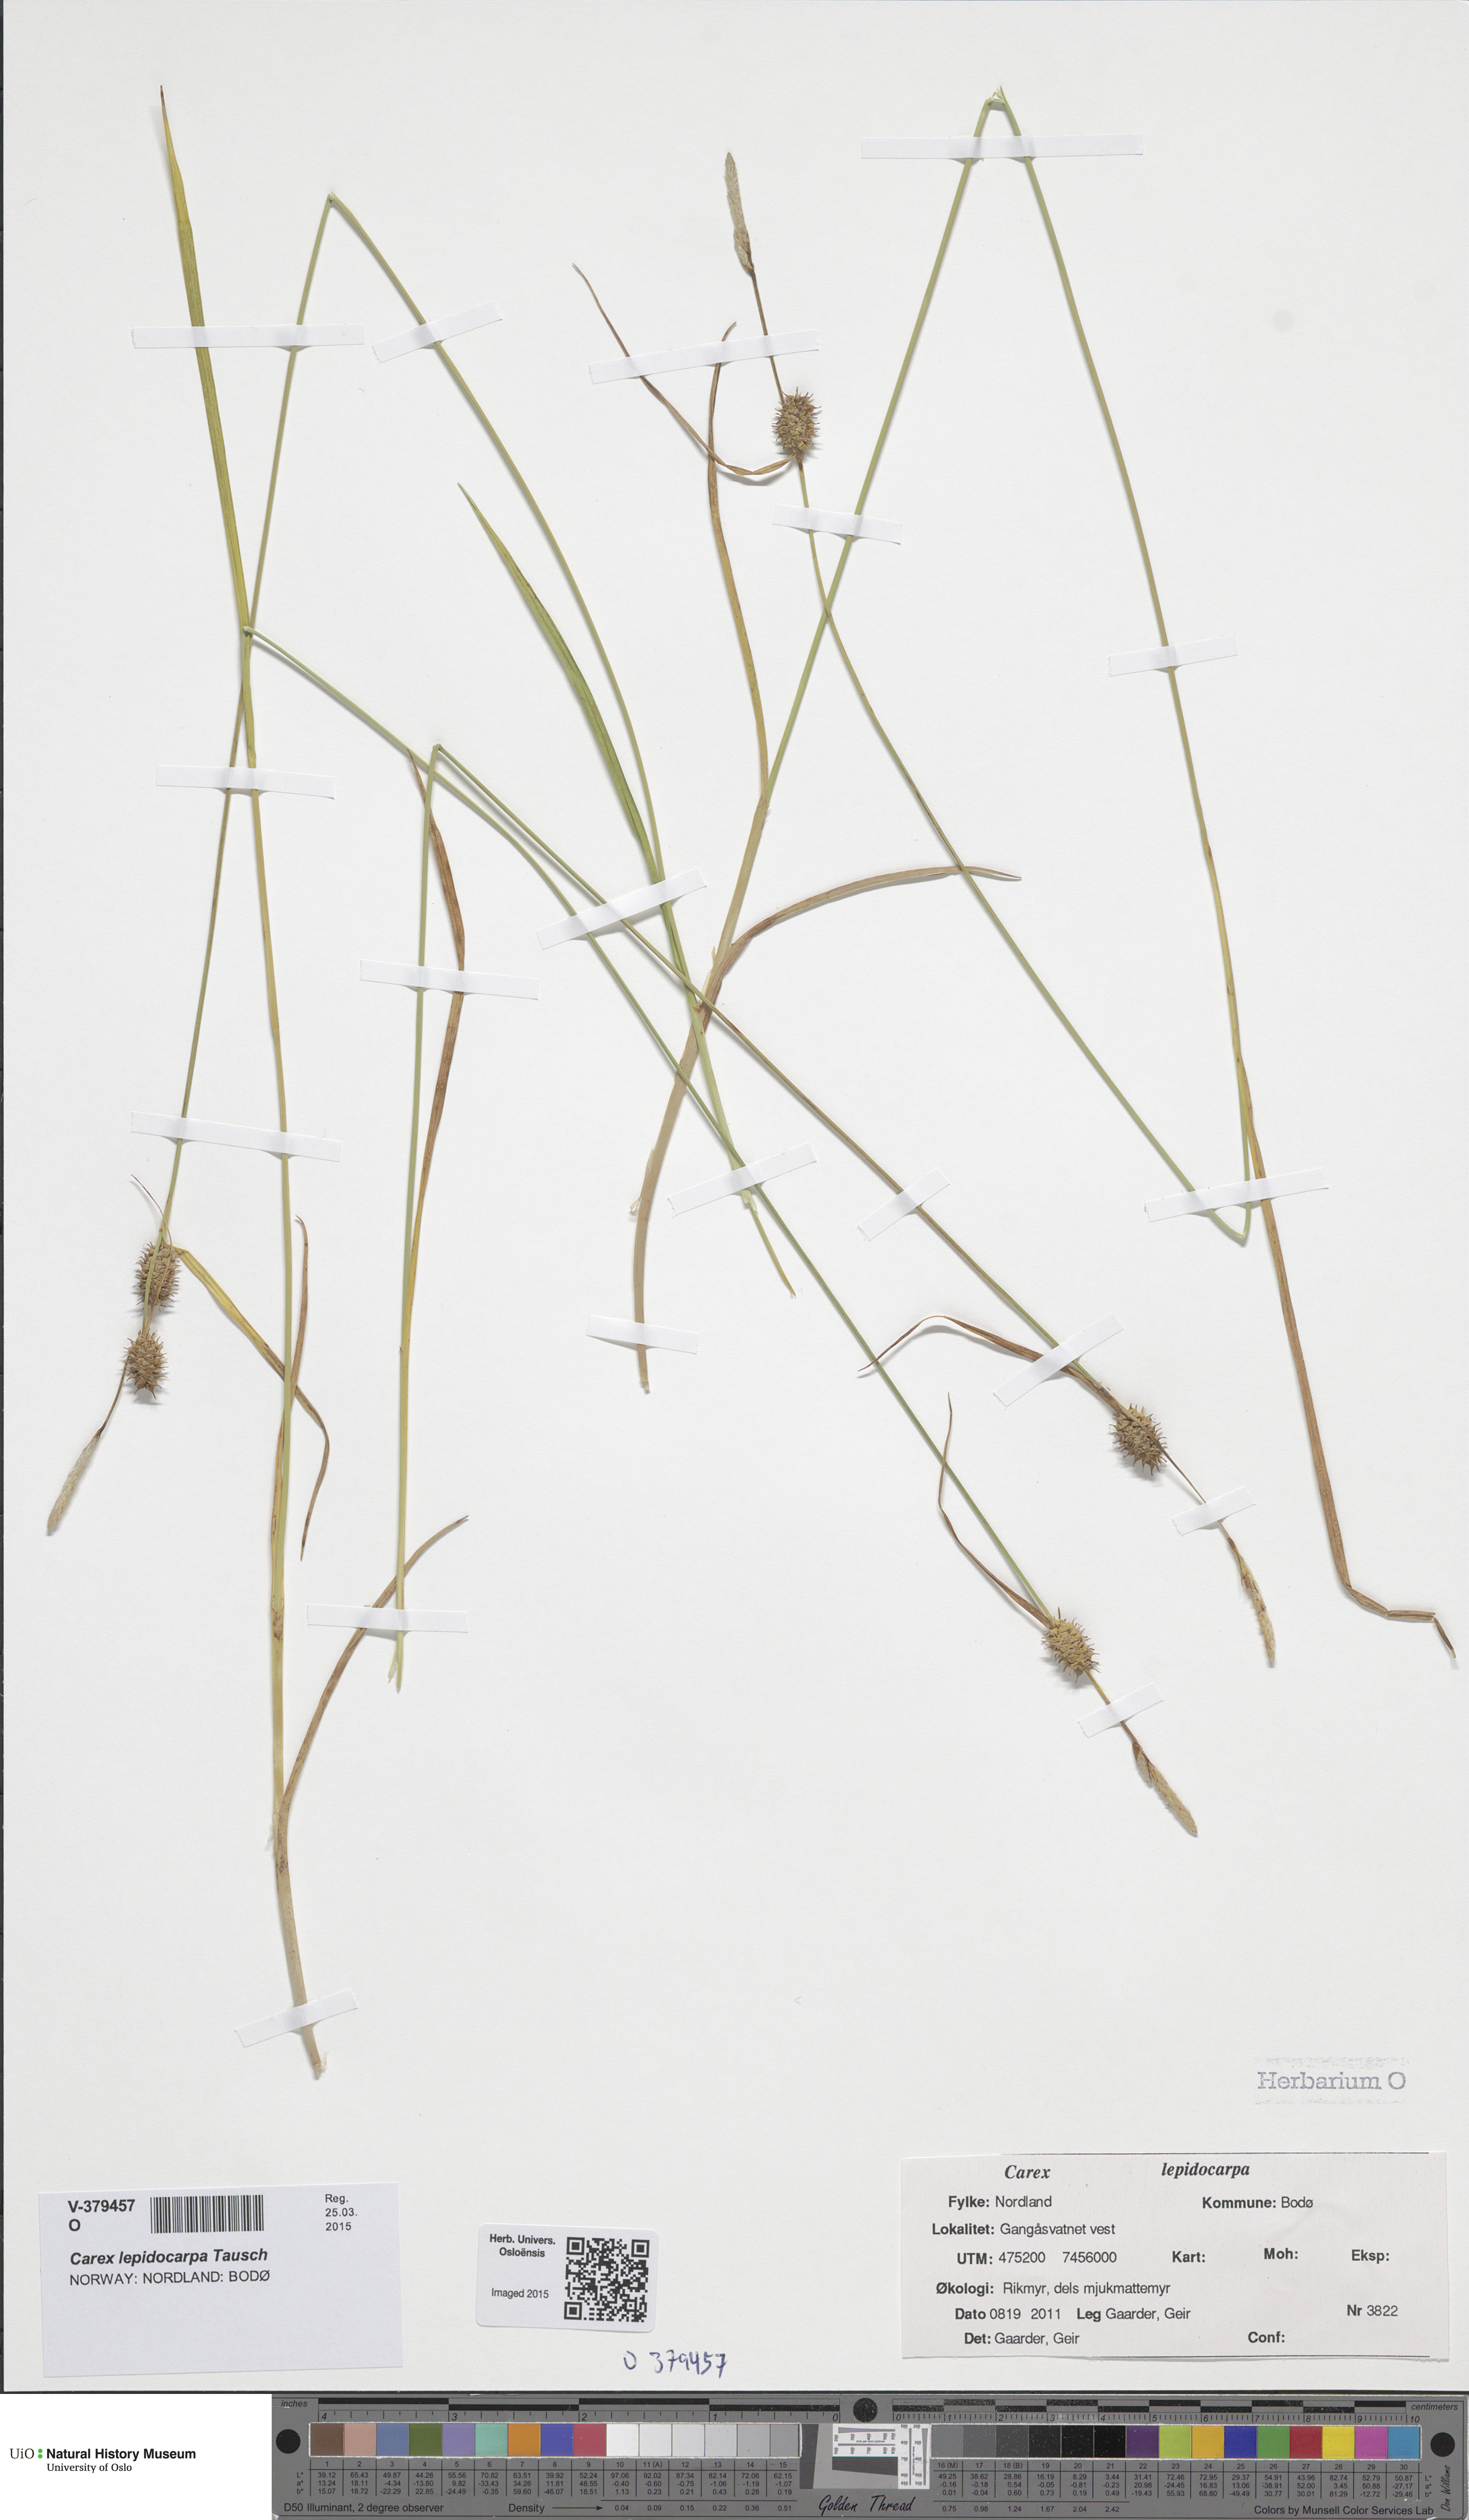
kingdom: Plantae
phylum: Tracheophyta
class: Liliopsida
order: Poales
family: Cyperaceae
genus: Carex
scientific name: Carex lepidocarpa
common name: Long-stalked yellow-sedge
